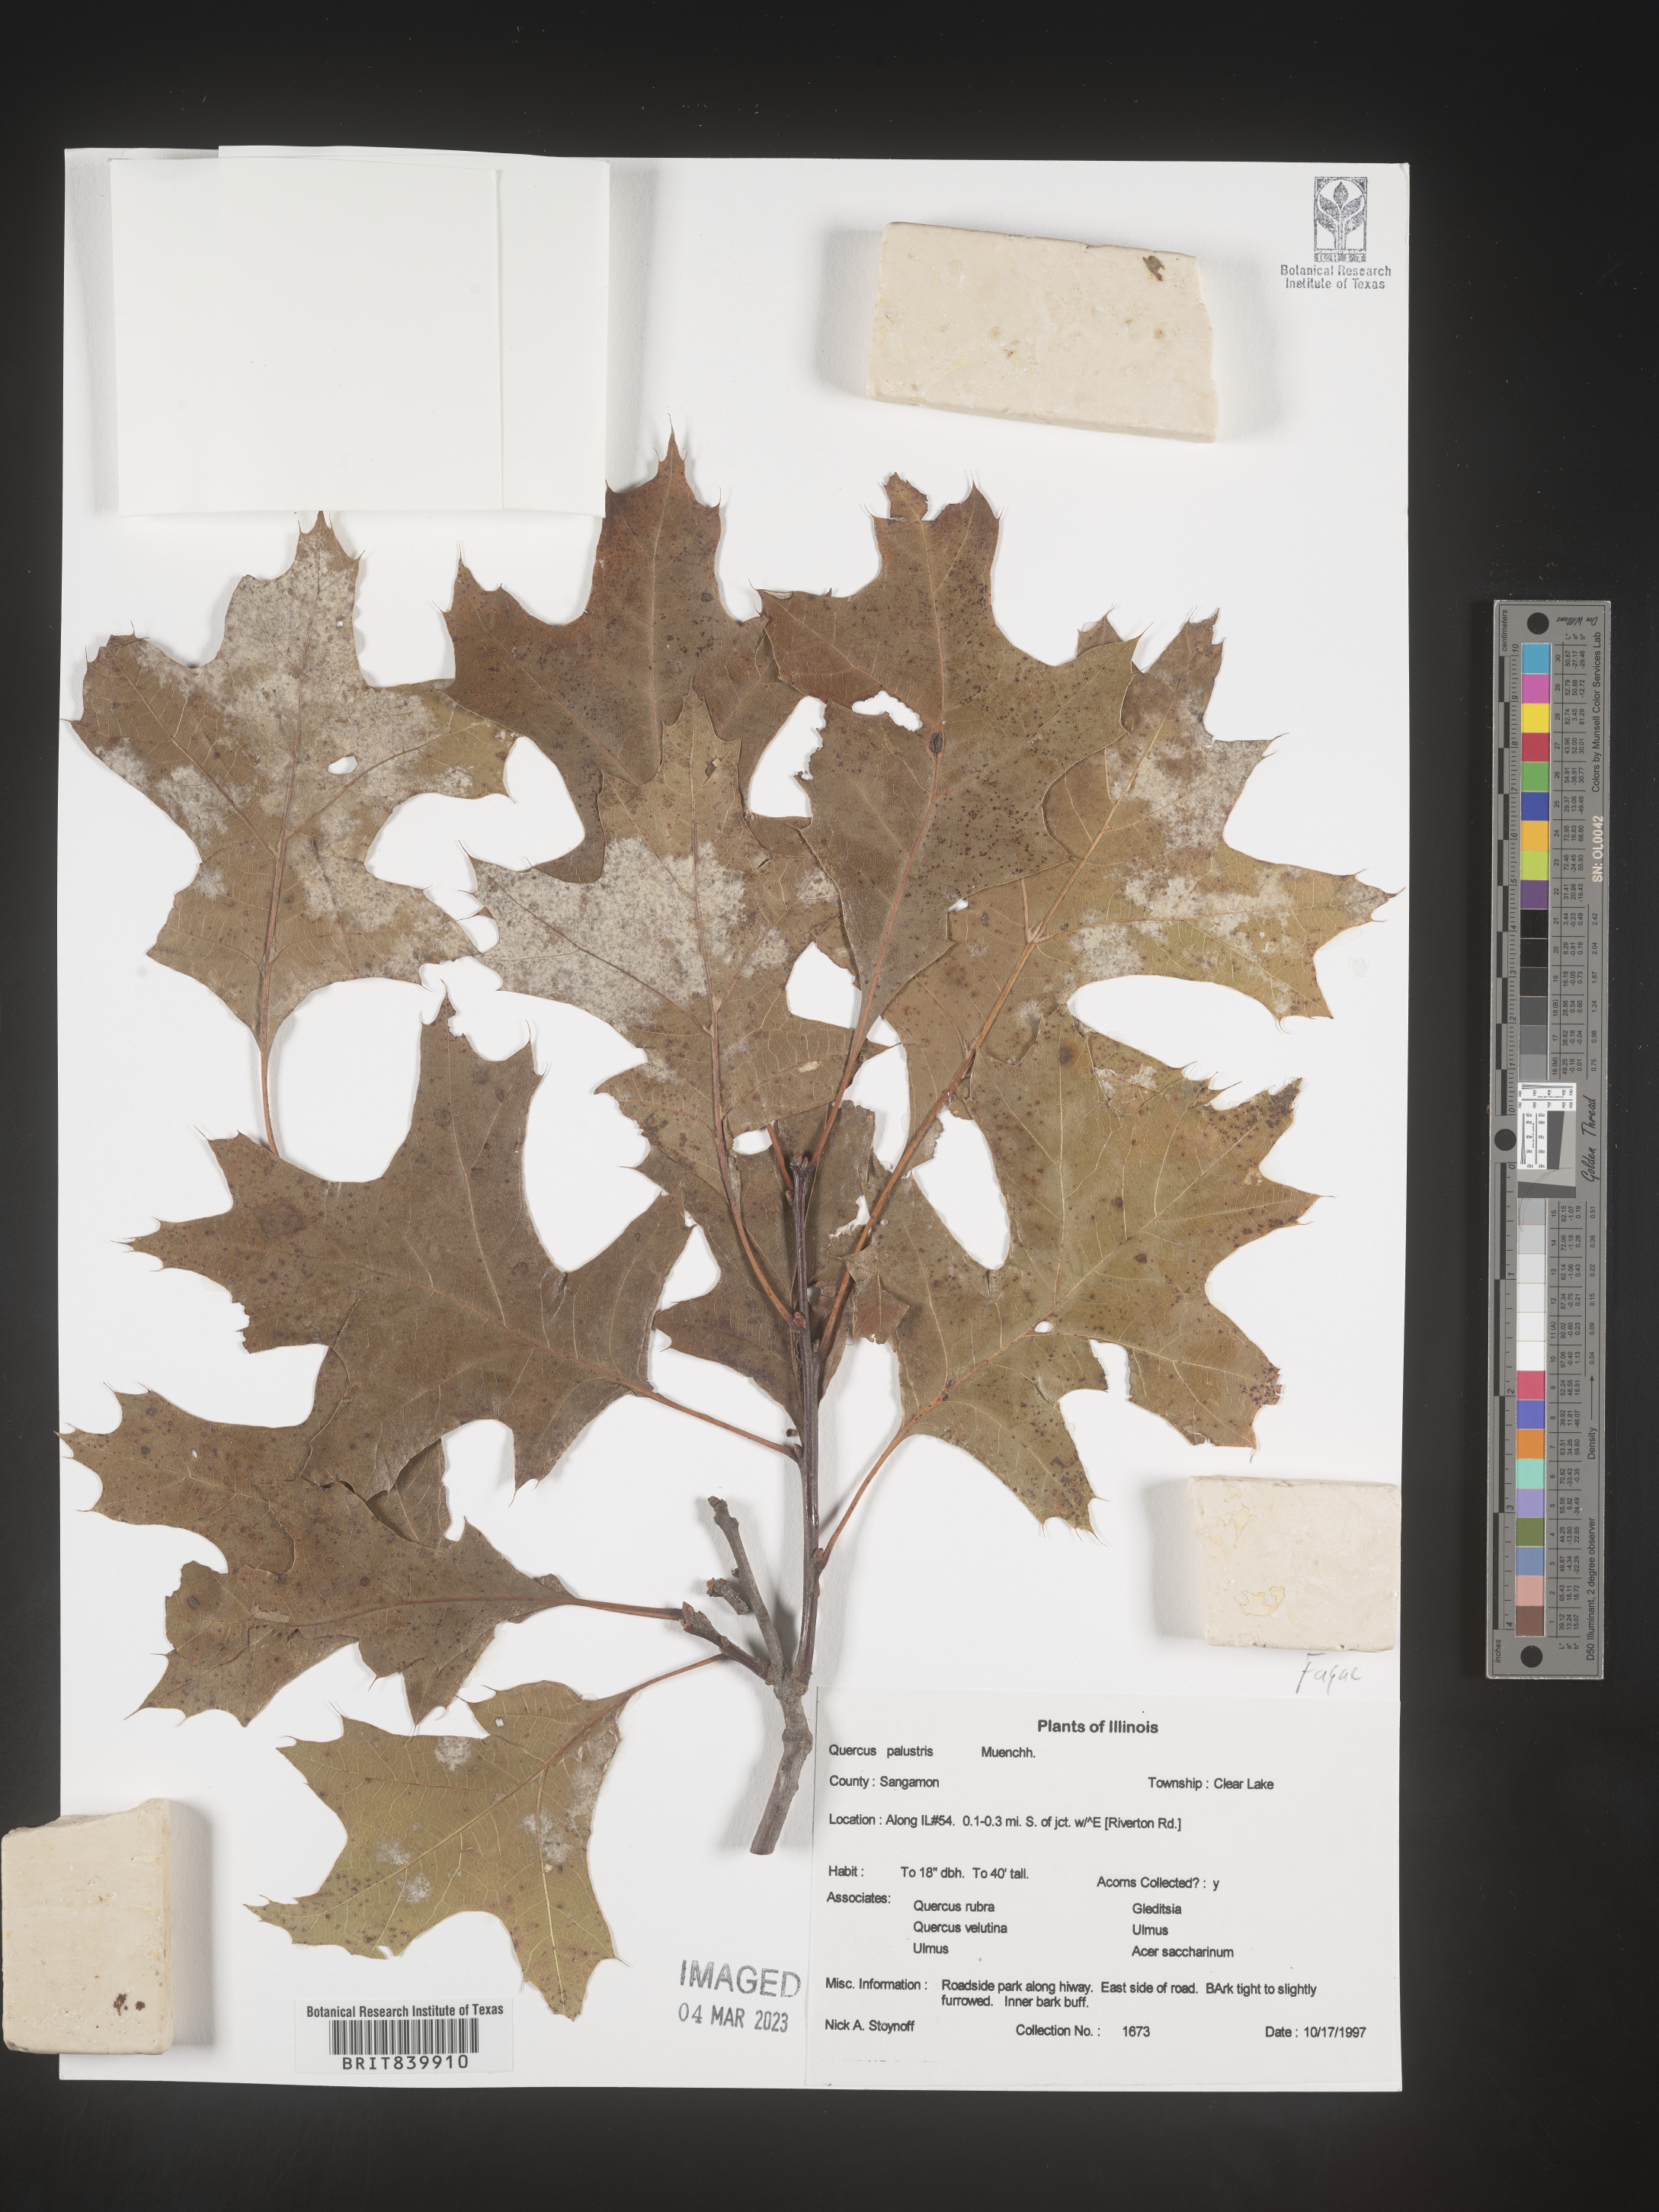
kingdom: Plantae
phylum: Tracheophyta
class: Magnoliopsida
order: Fagales
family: Fagaceae
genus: Quercus
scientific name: Quercus palustris
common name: Pin oak
